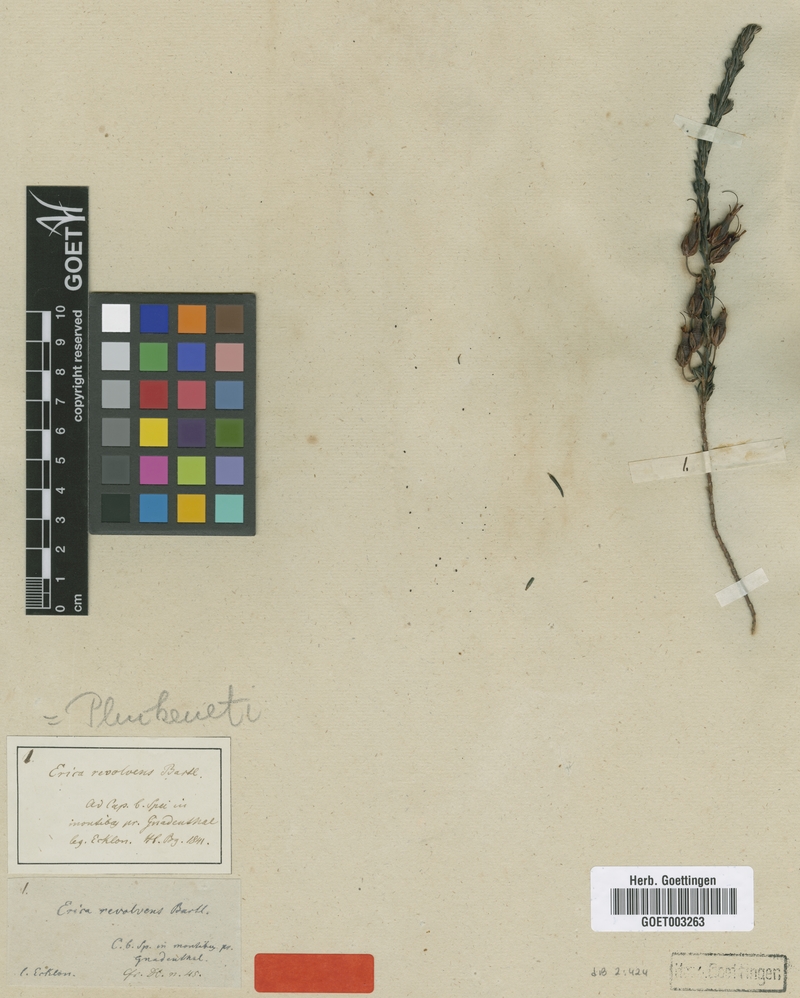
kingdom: Plantae
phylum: Tracheophyta
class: Magnoliopsida
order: Ericales
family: Ericaceae
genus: Erica
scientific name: Erica plukenetii
